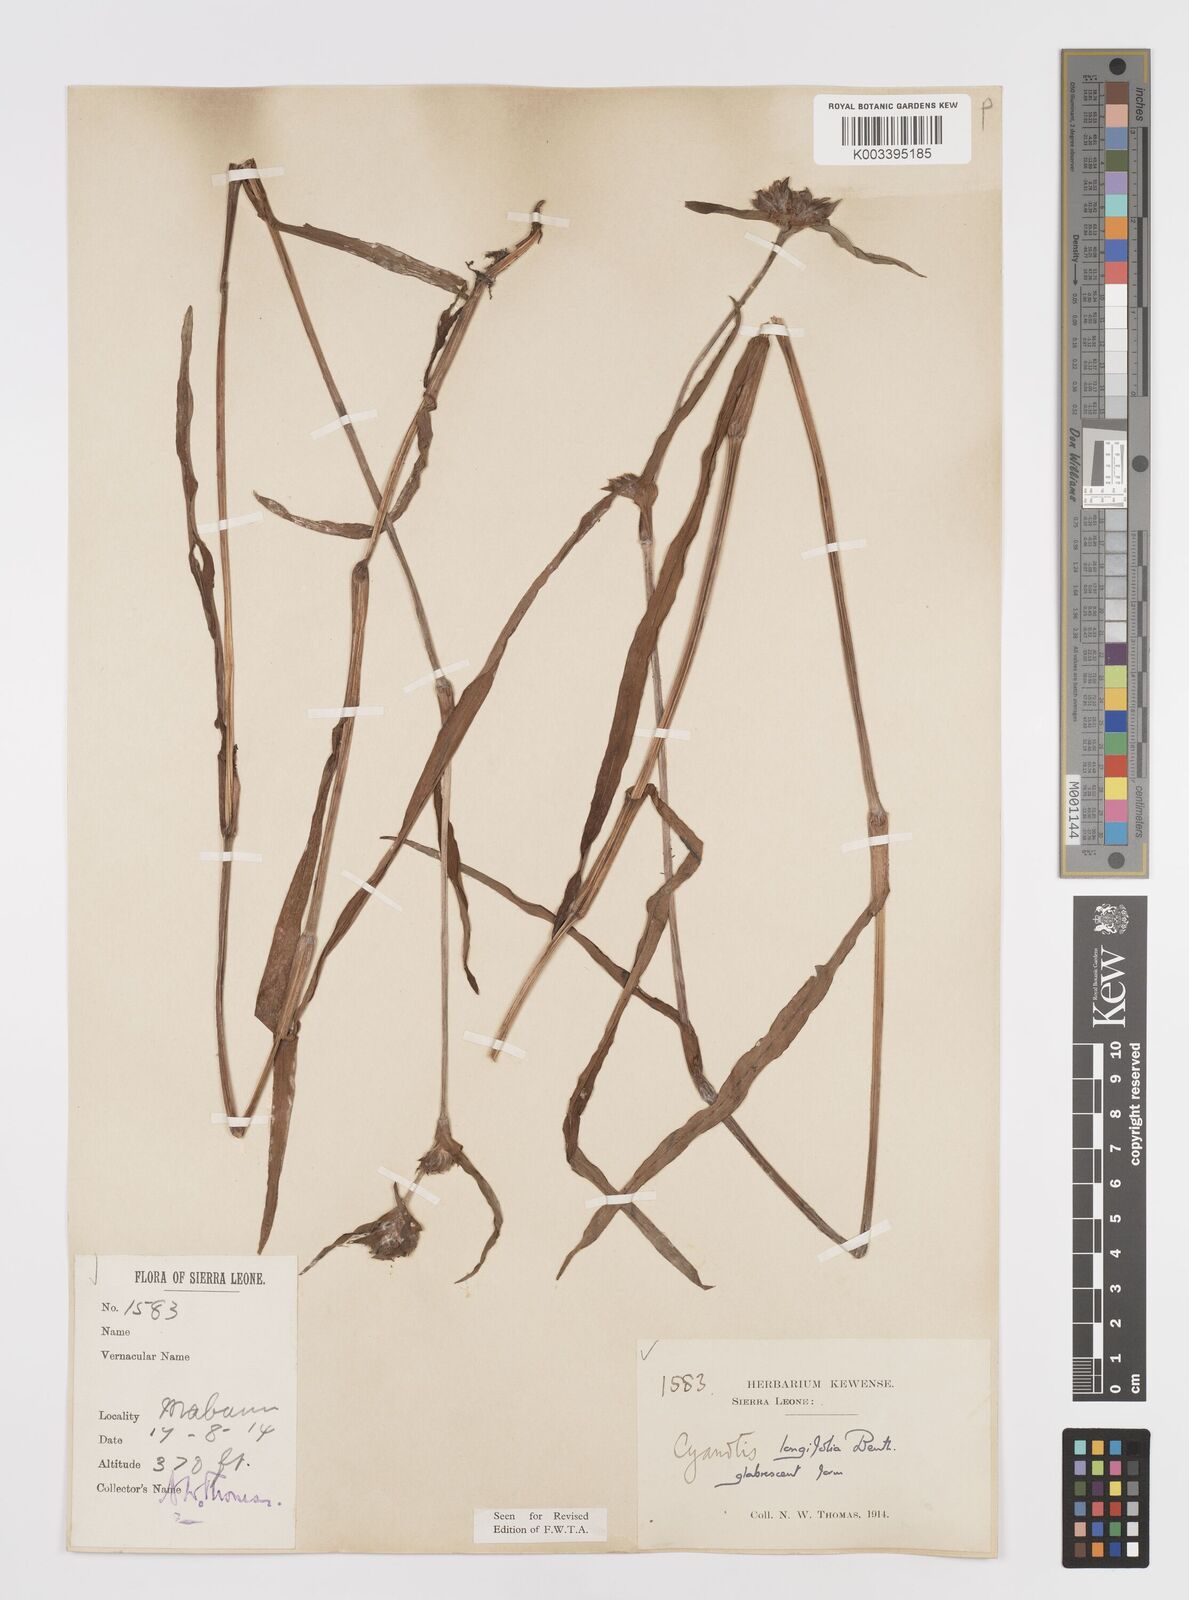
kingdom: Plantae
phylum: Tracheophyta
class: Liliopsida
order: Commelinales
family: Commelinaceae
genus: Cyanotis
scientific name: Cyanotis
